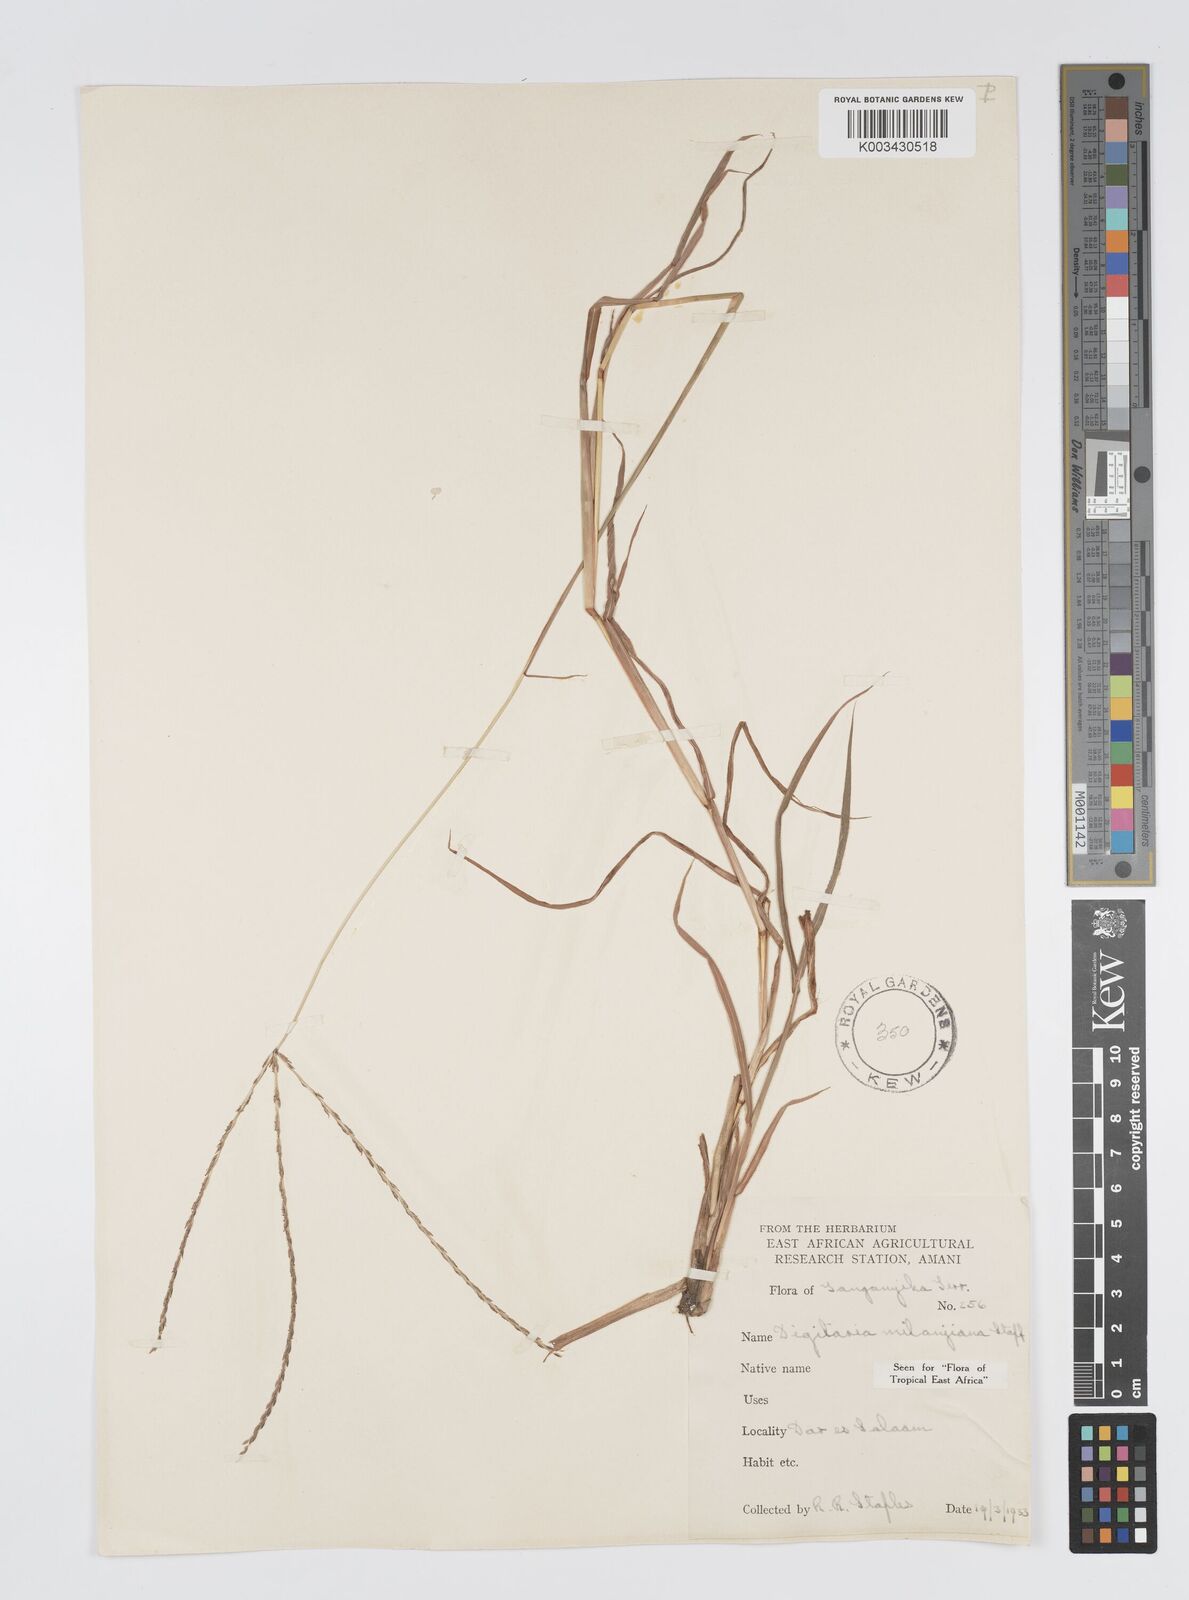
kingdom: Plantae
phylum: Tracheophyta
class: Liliopsida
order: Poales
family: Poaceae
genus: Digitaria
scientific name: Digitaria milanjiana
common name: Madagascar crabgrass
